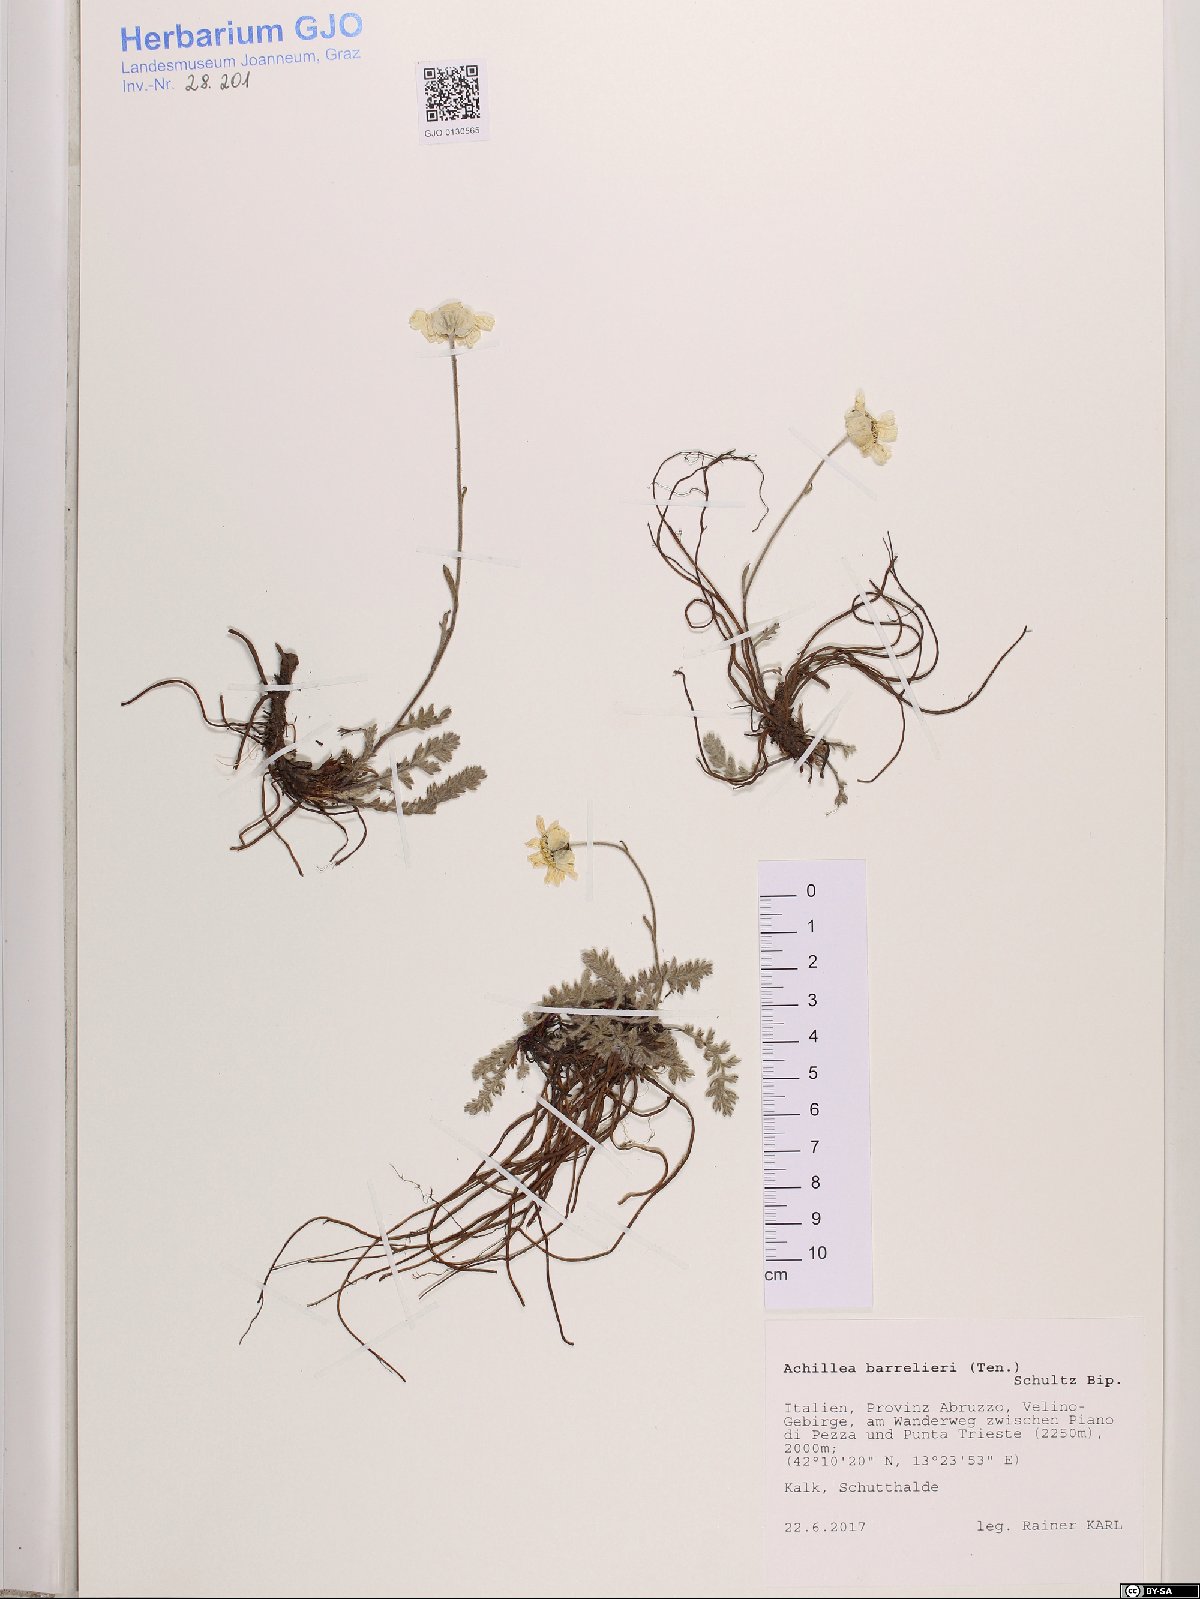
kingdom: Plantae
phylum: Tracheophyta
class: Magnoliopsida
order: Asterales
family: Asteraceae
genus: Achillea
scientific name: Achillea barrelieri
